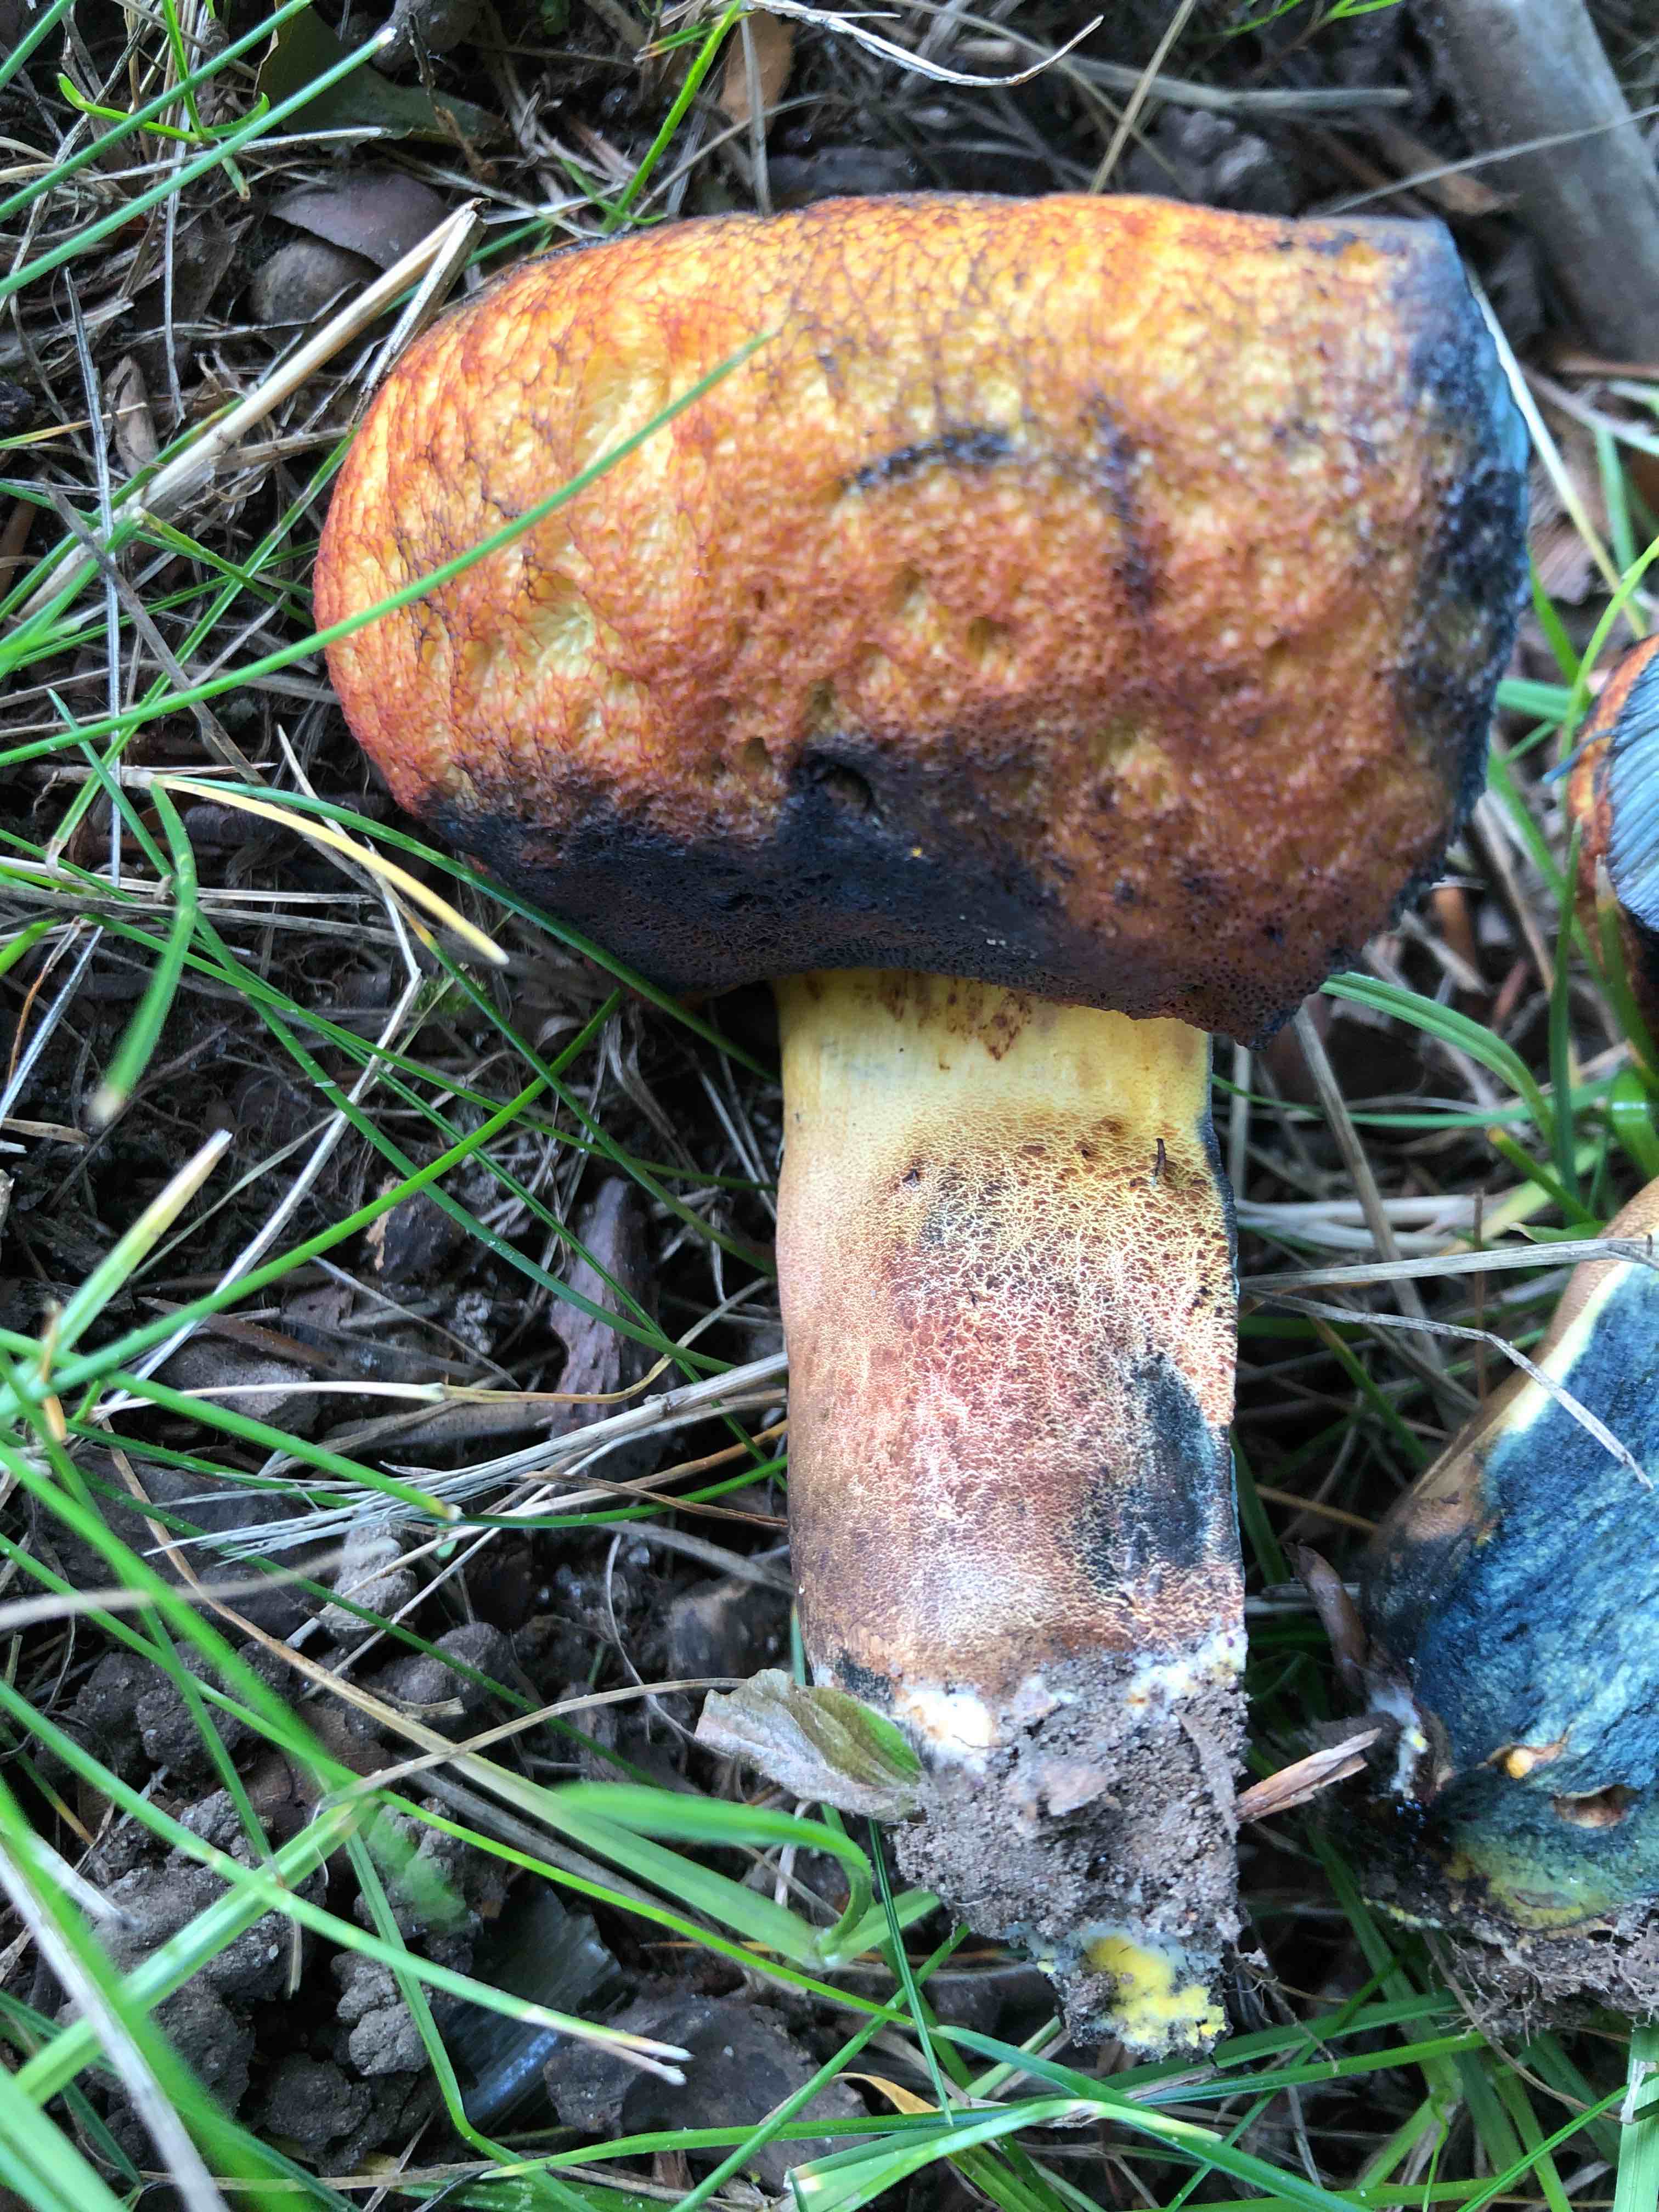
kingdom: Fungi
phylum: Basidiomycota
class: Agaricomycetes
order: Boletales
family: Boletaceae
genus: Neoboletus
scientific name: Neoboletus xanthopus
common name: finprikket indigorørhat
